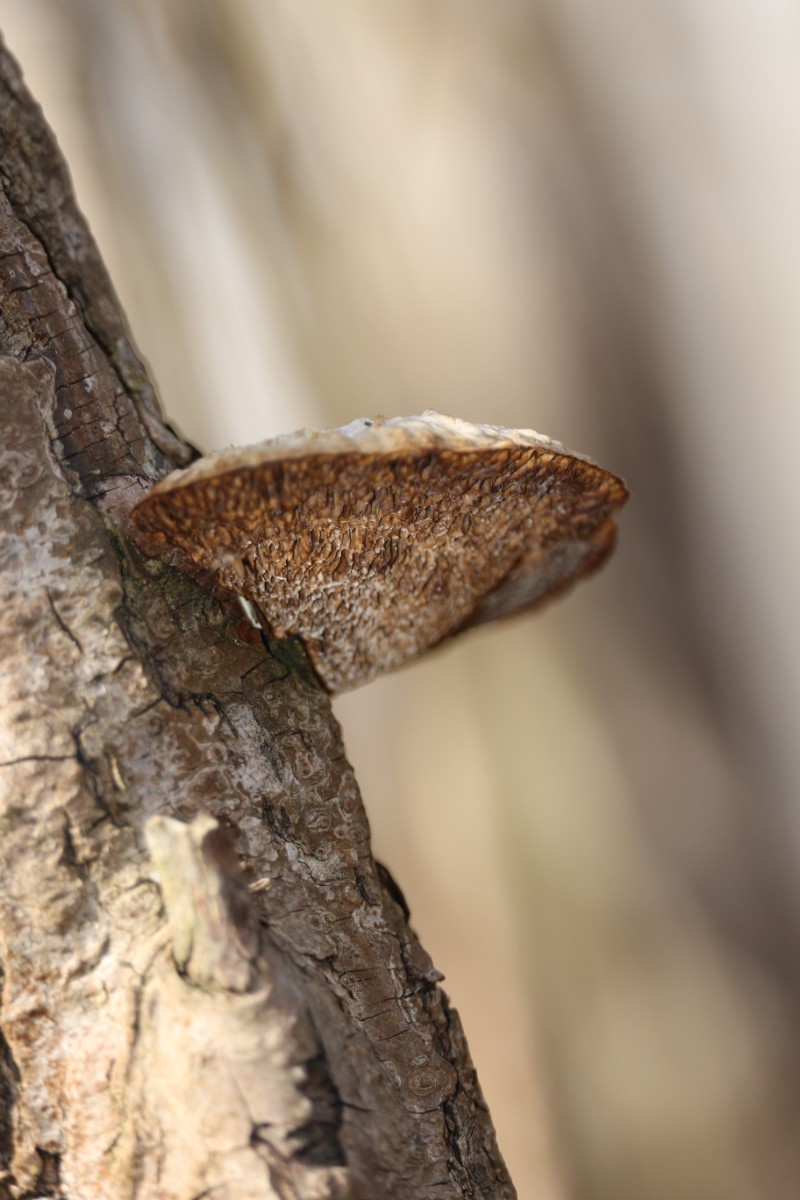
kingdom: Fungi
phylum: Basidiomycota
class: Agaricomycetes
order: Polyporales
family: Polyporaceae
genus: Daedaleopsis
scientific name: Daedaleopsis confragosa
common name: rødmende læderporesvamp
